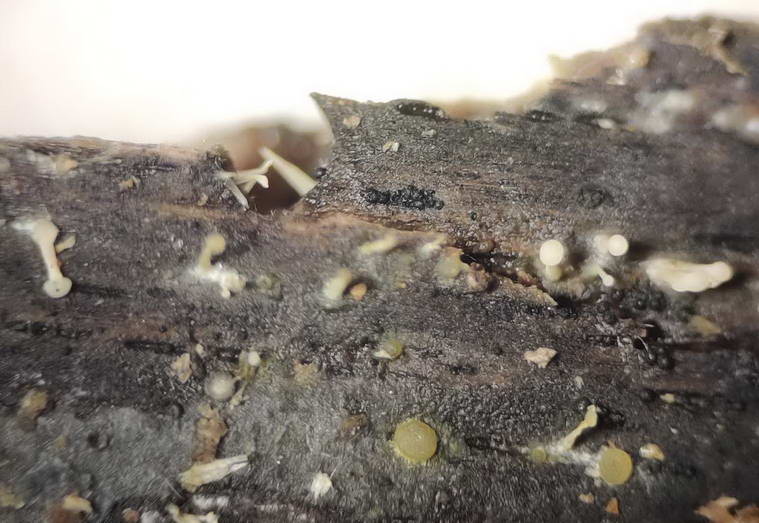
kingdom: Fungi
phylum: Ascomycota
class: Leotiomycetes
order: Leotiales
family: Tympanidaceae
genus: Claussenomyces
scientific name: Claussenomyces prasinulus
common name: bleggrøn linseskive
